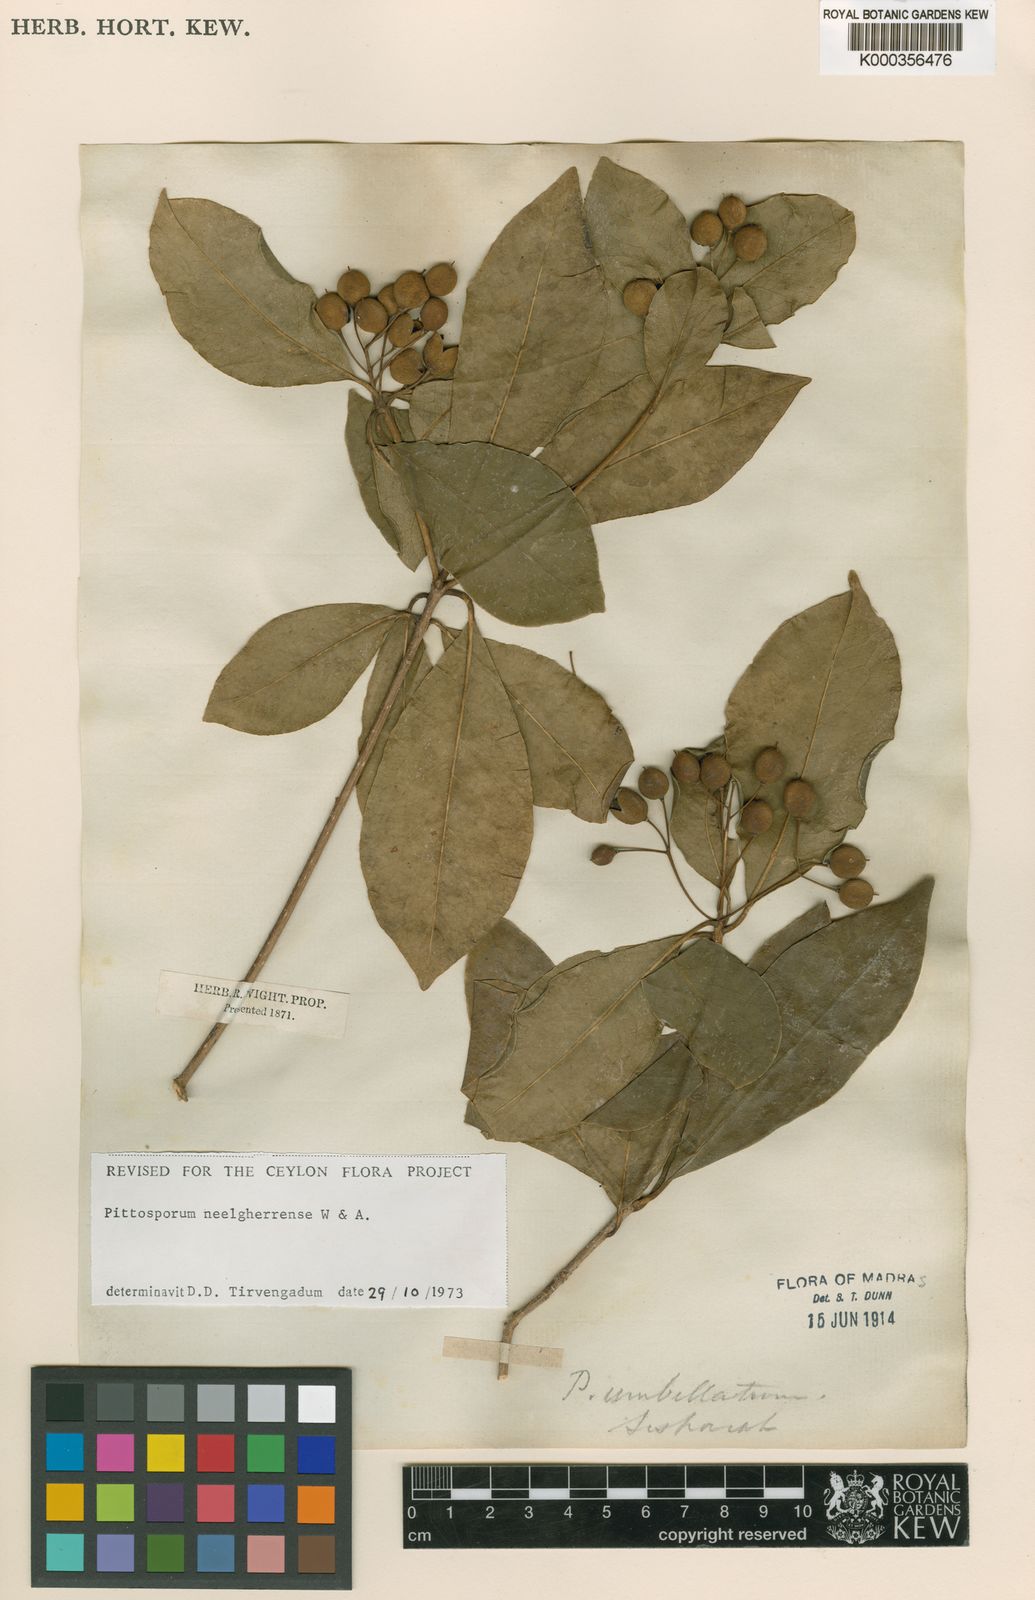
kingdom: Plantae
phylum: Tracheophyta
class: Magnoliopsida
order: Apiales
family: Pittosporaceae
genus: Pittosporum
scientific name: Pittosporum neelgherrense
